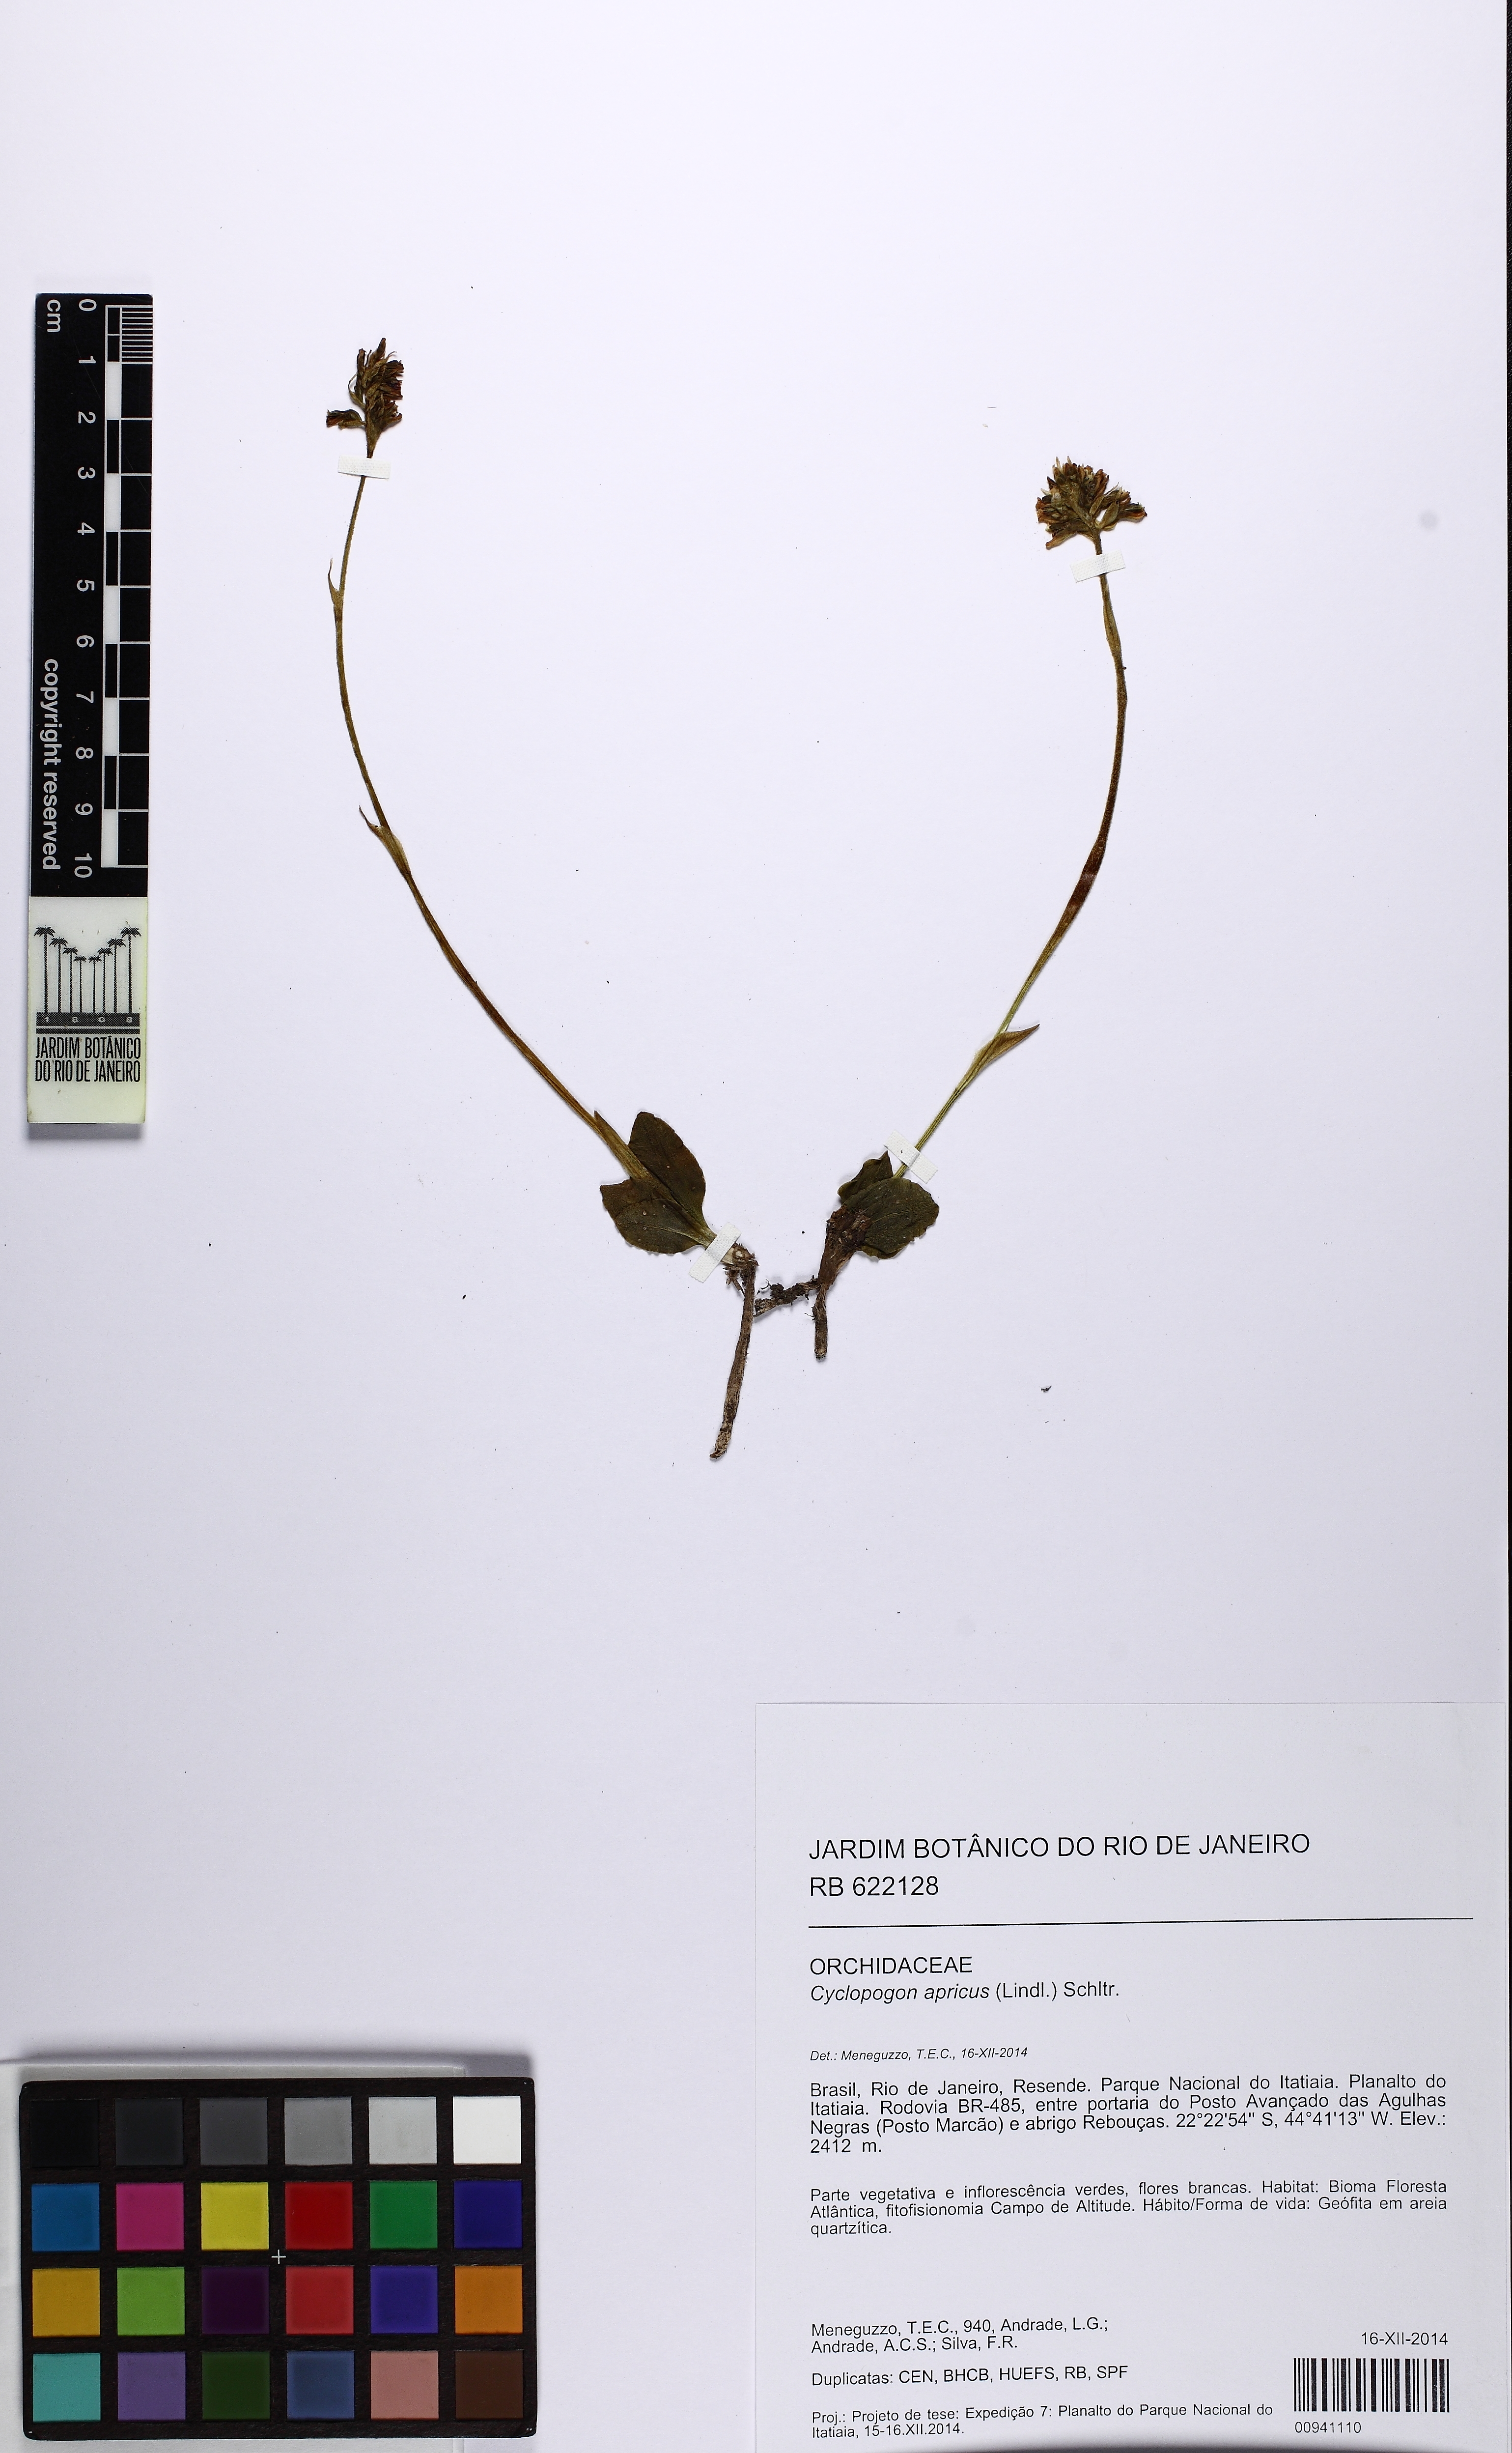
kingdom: Plantae
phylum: Tracheophyta
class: Liliopsida
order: Asparagales
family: Orchidaceae
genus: Cyclopogon
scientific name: Cyclopogon apricus
